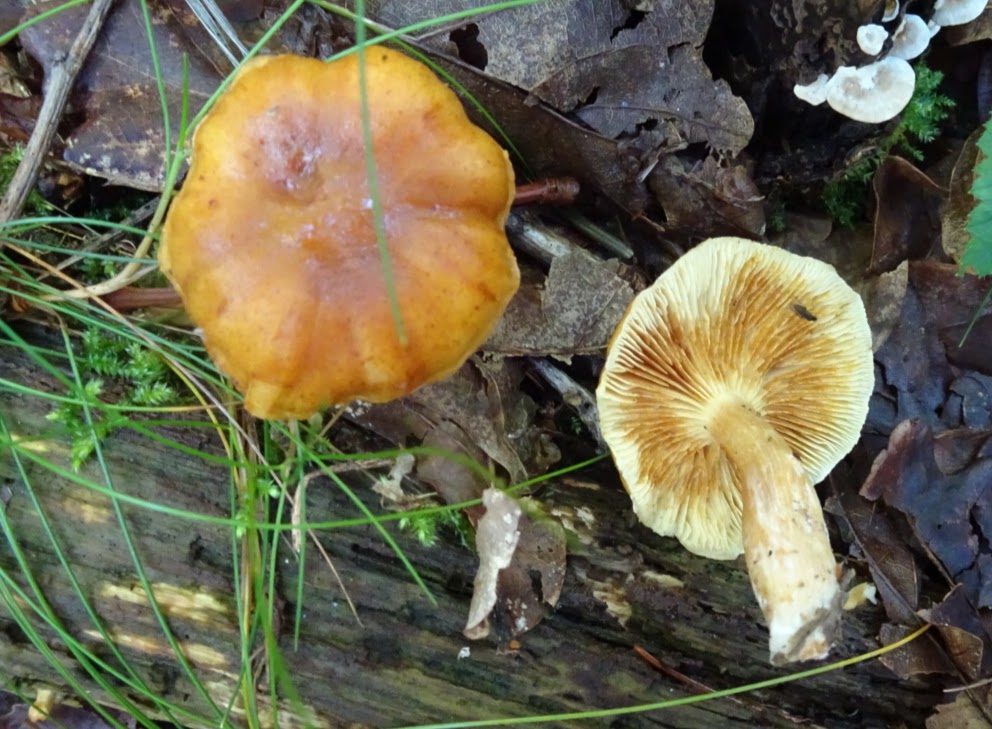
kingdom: Fungi
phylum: Basidiomycota
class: Agaricomycetes
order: Agaricales
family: Hymenogastraceae
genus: Gymnopilus
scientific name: Gymnopilus penetrans
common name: plettet flammehat
